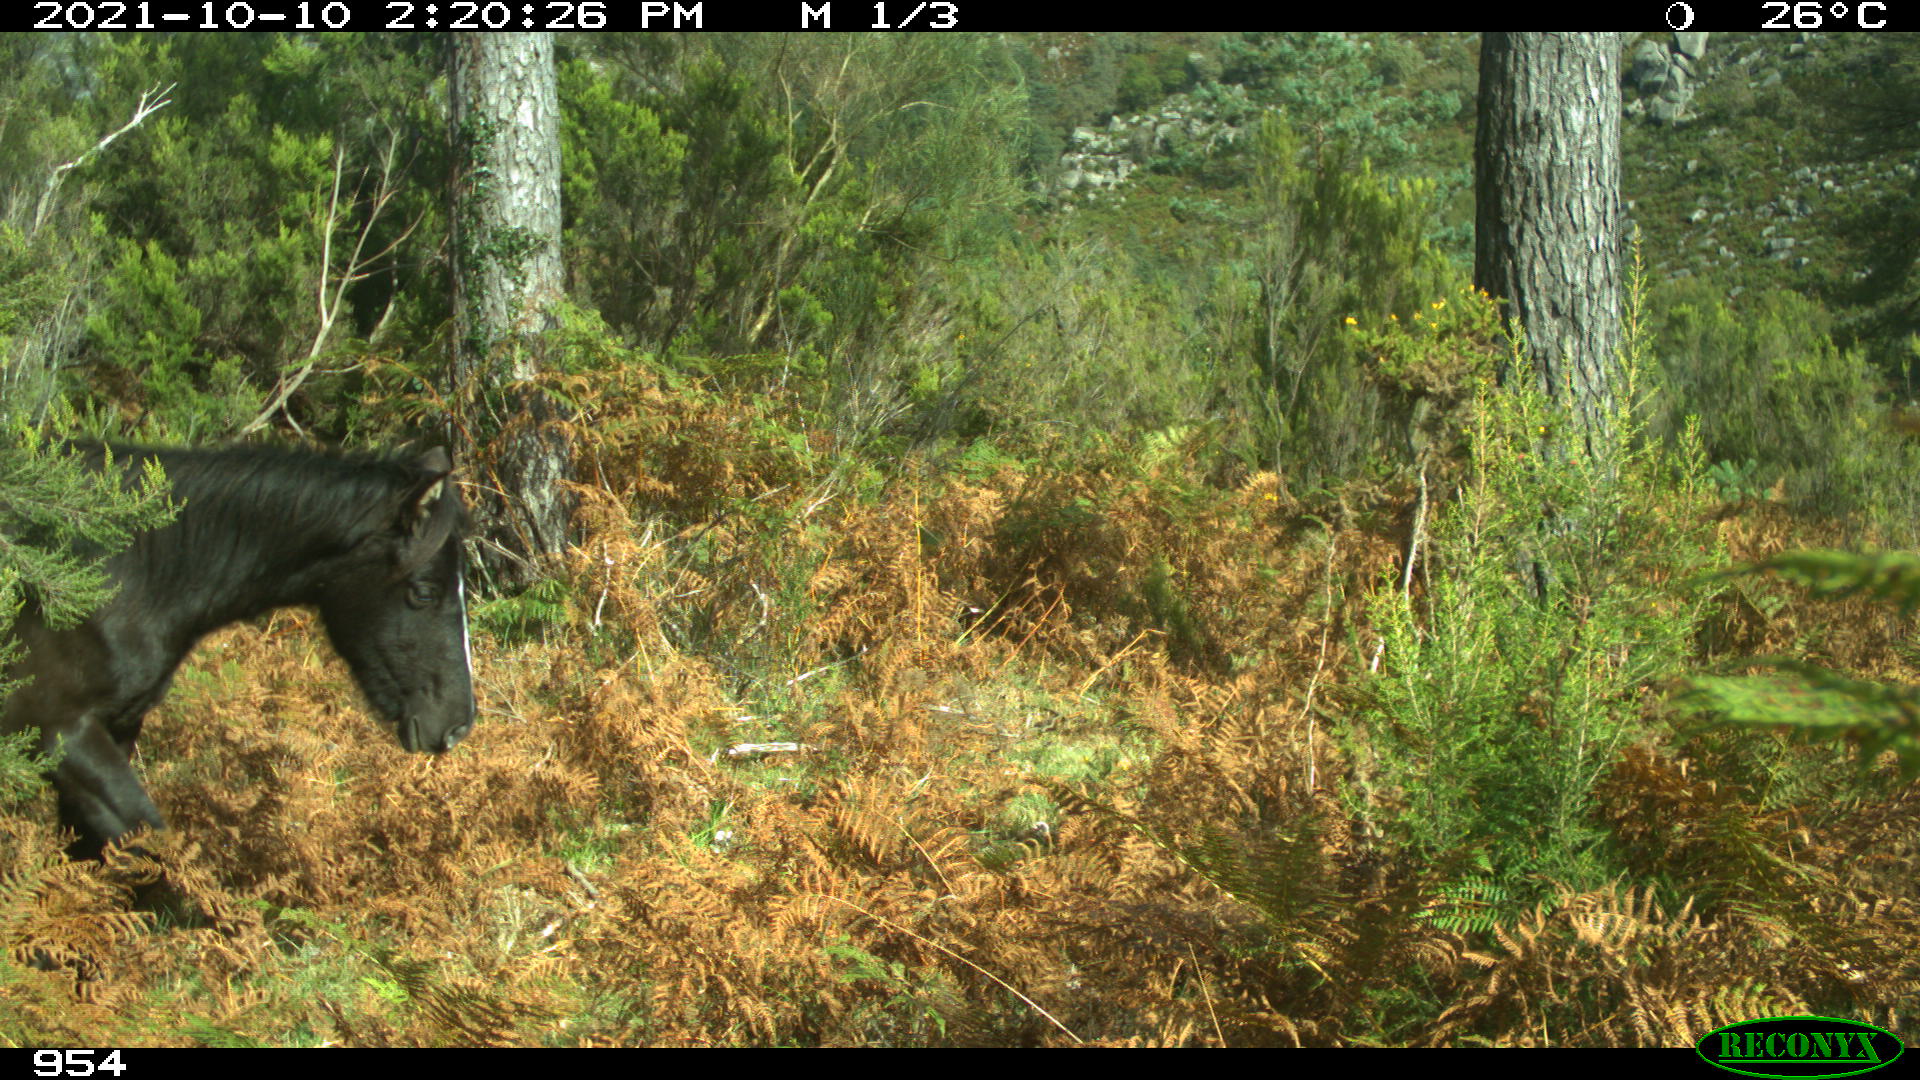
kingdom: Animalia
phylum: Chordata
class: Mammalia
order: Perissodactyla
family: Equidae
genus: Equus
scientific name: Equus caballus
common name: Horse
